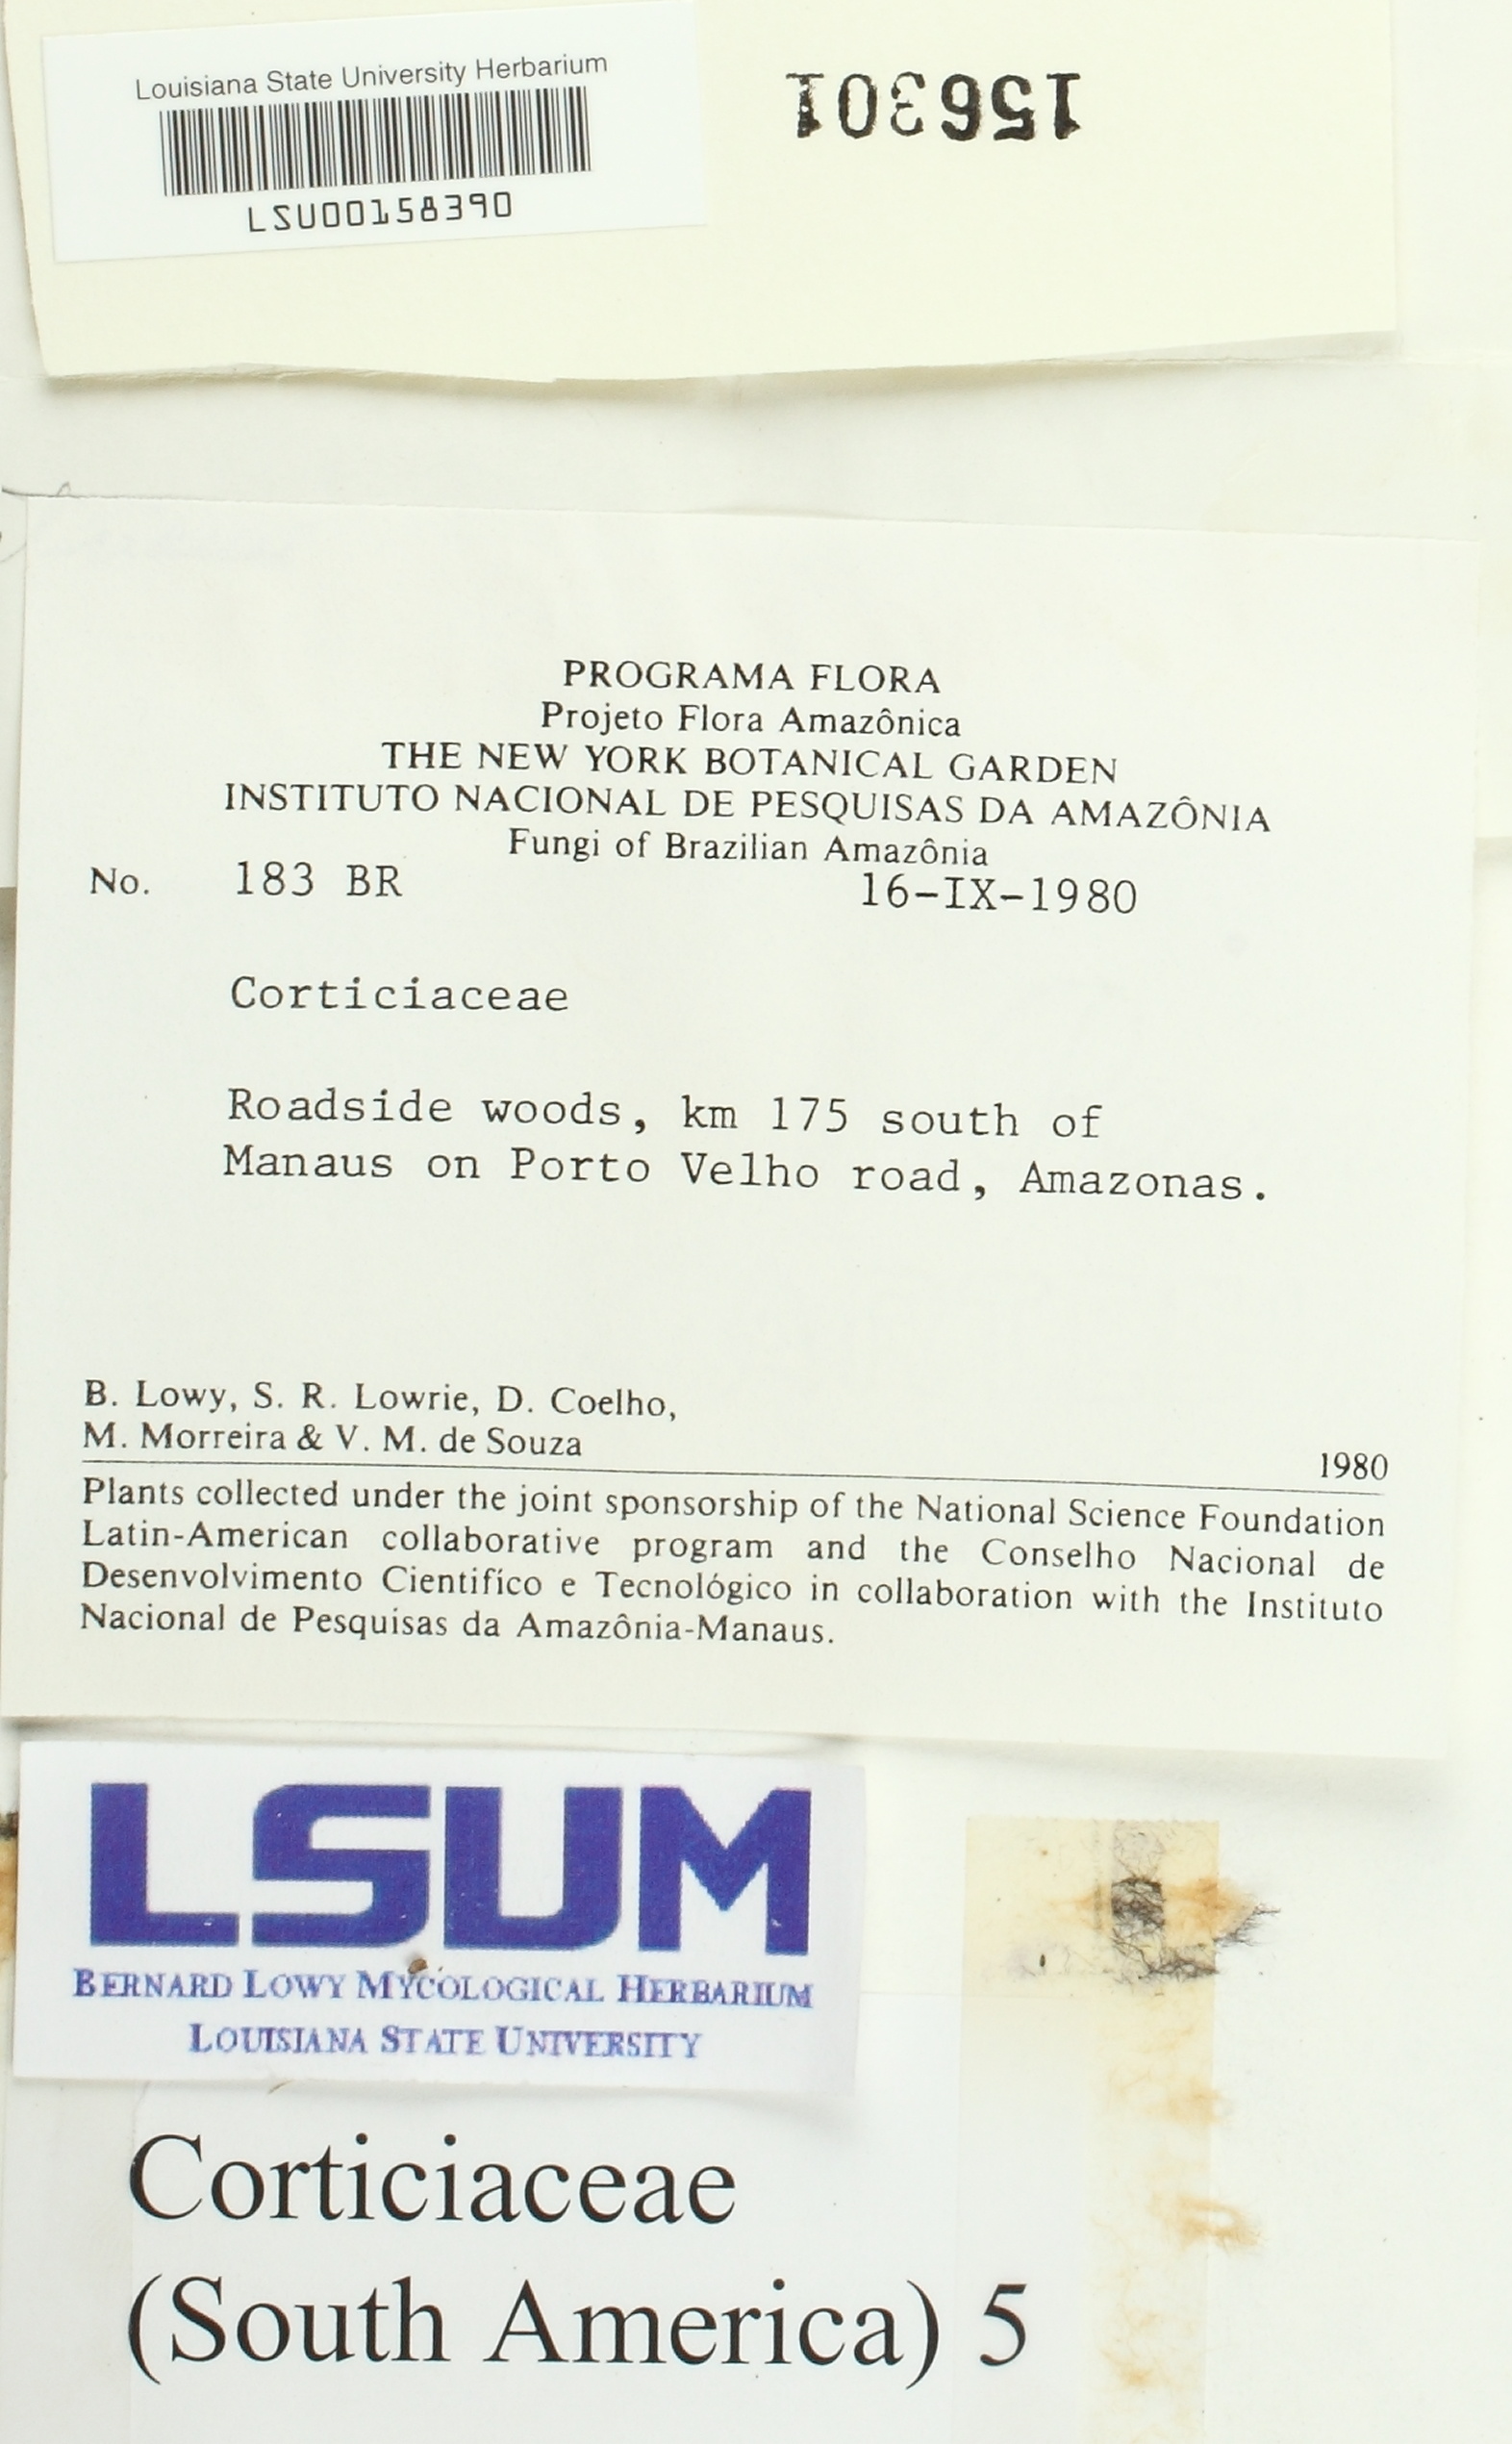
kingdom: Fungi
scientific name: Fungi
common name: Fungi
